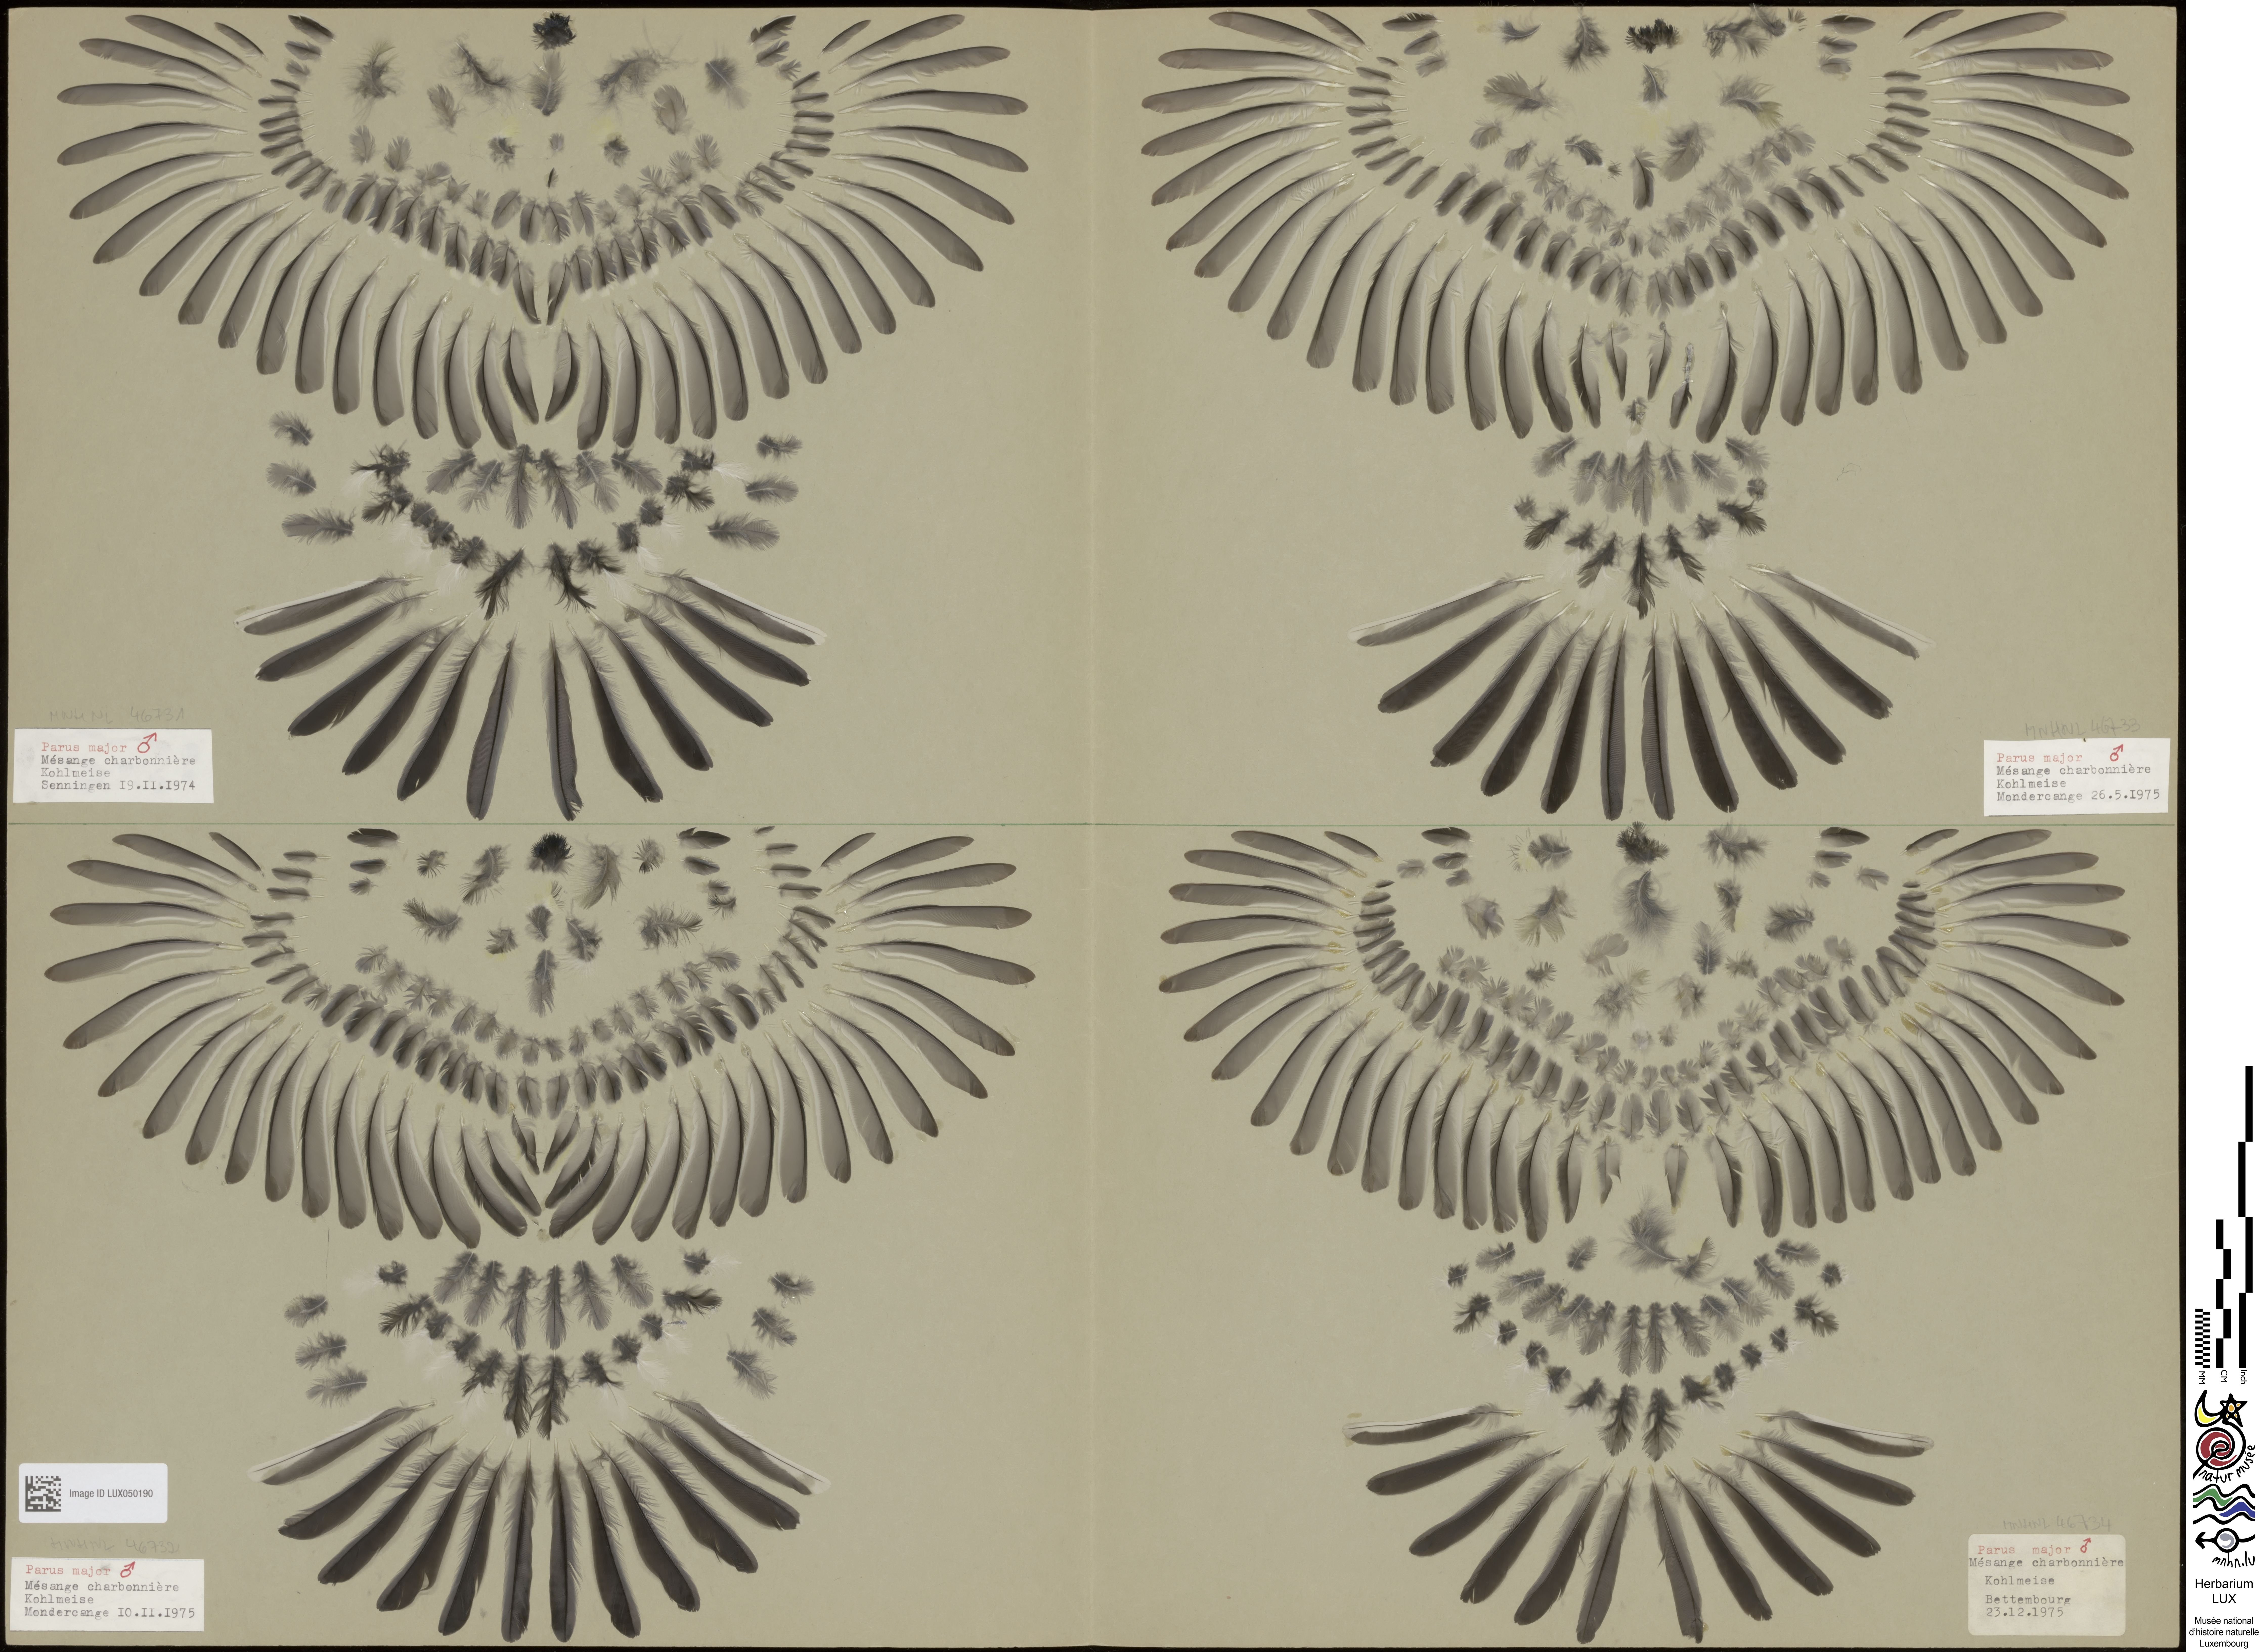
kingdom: Animalia
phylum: Chordata
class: Aves
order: Passeriformes
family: Paridae
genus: Parus
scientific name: Parus major
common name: Great tit
